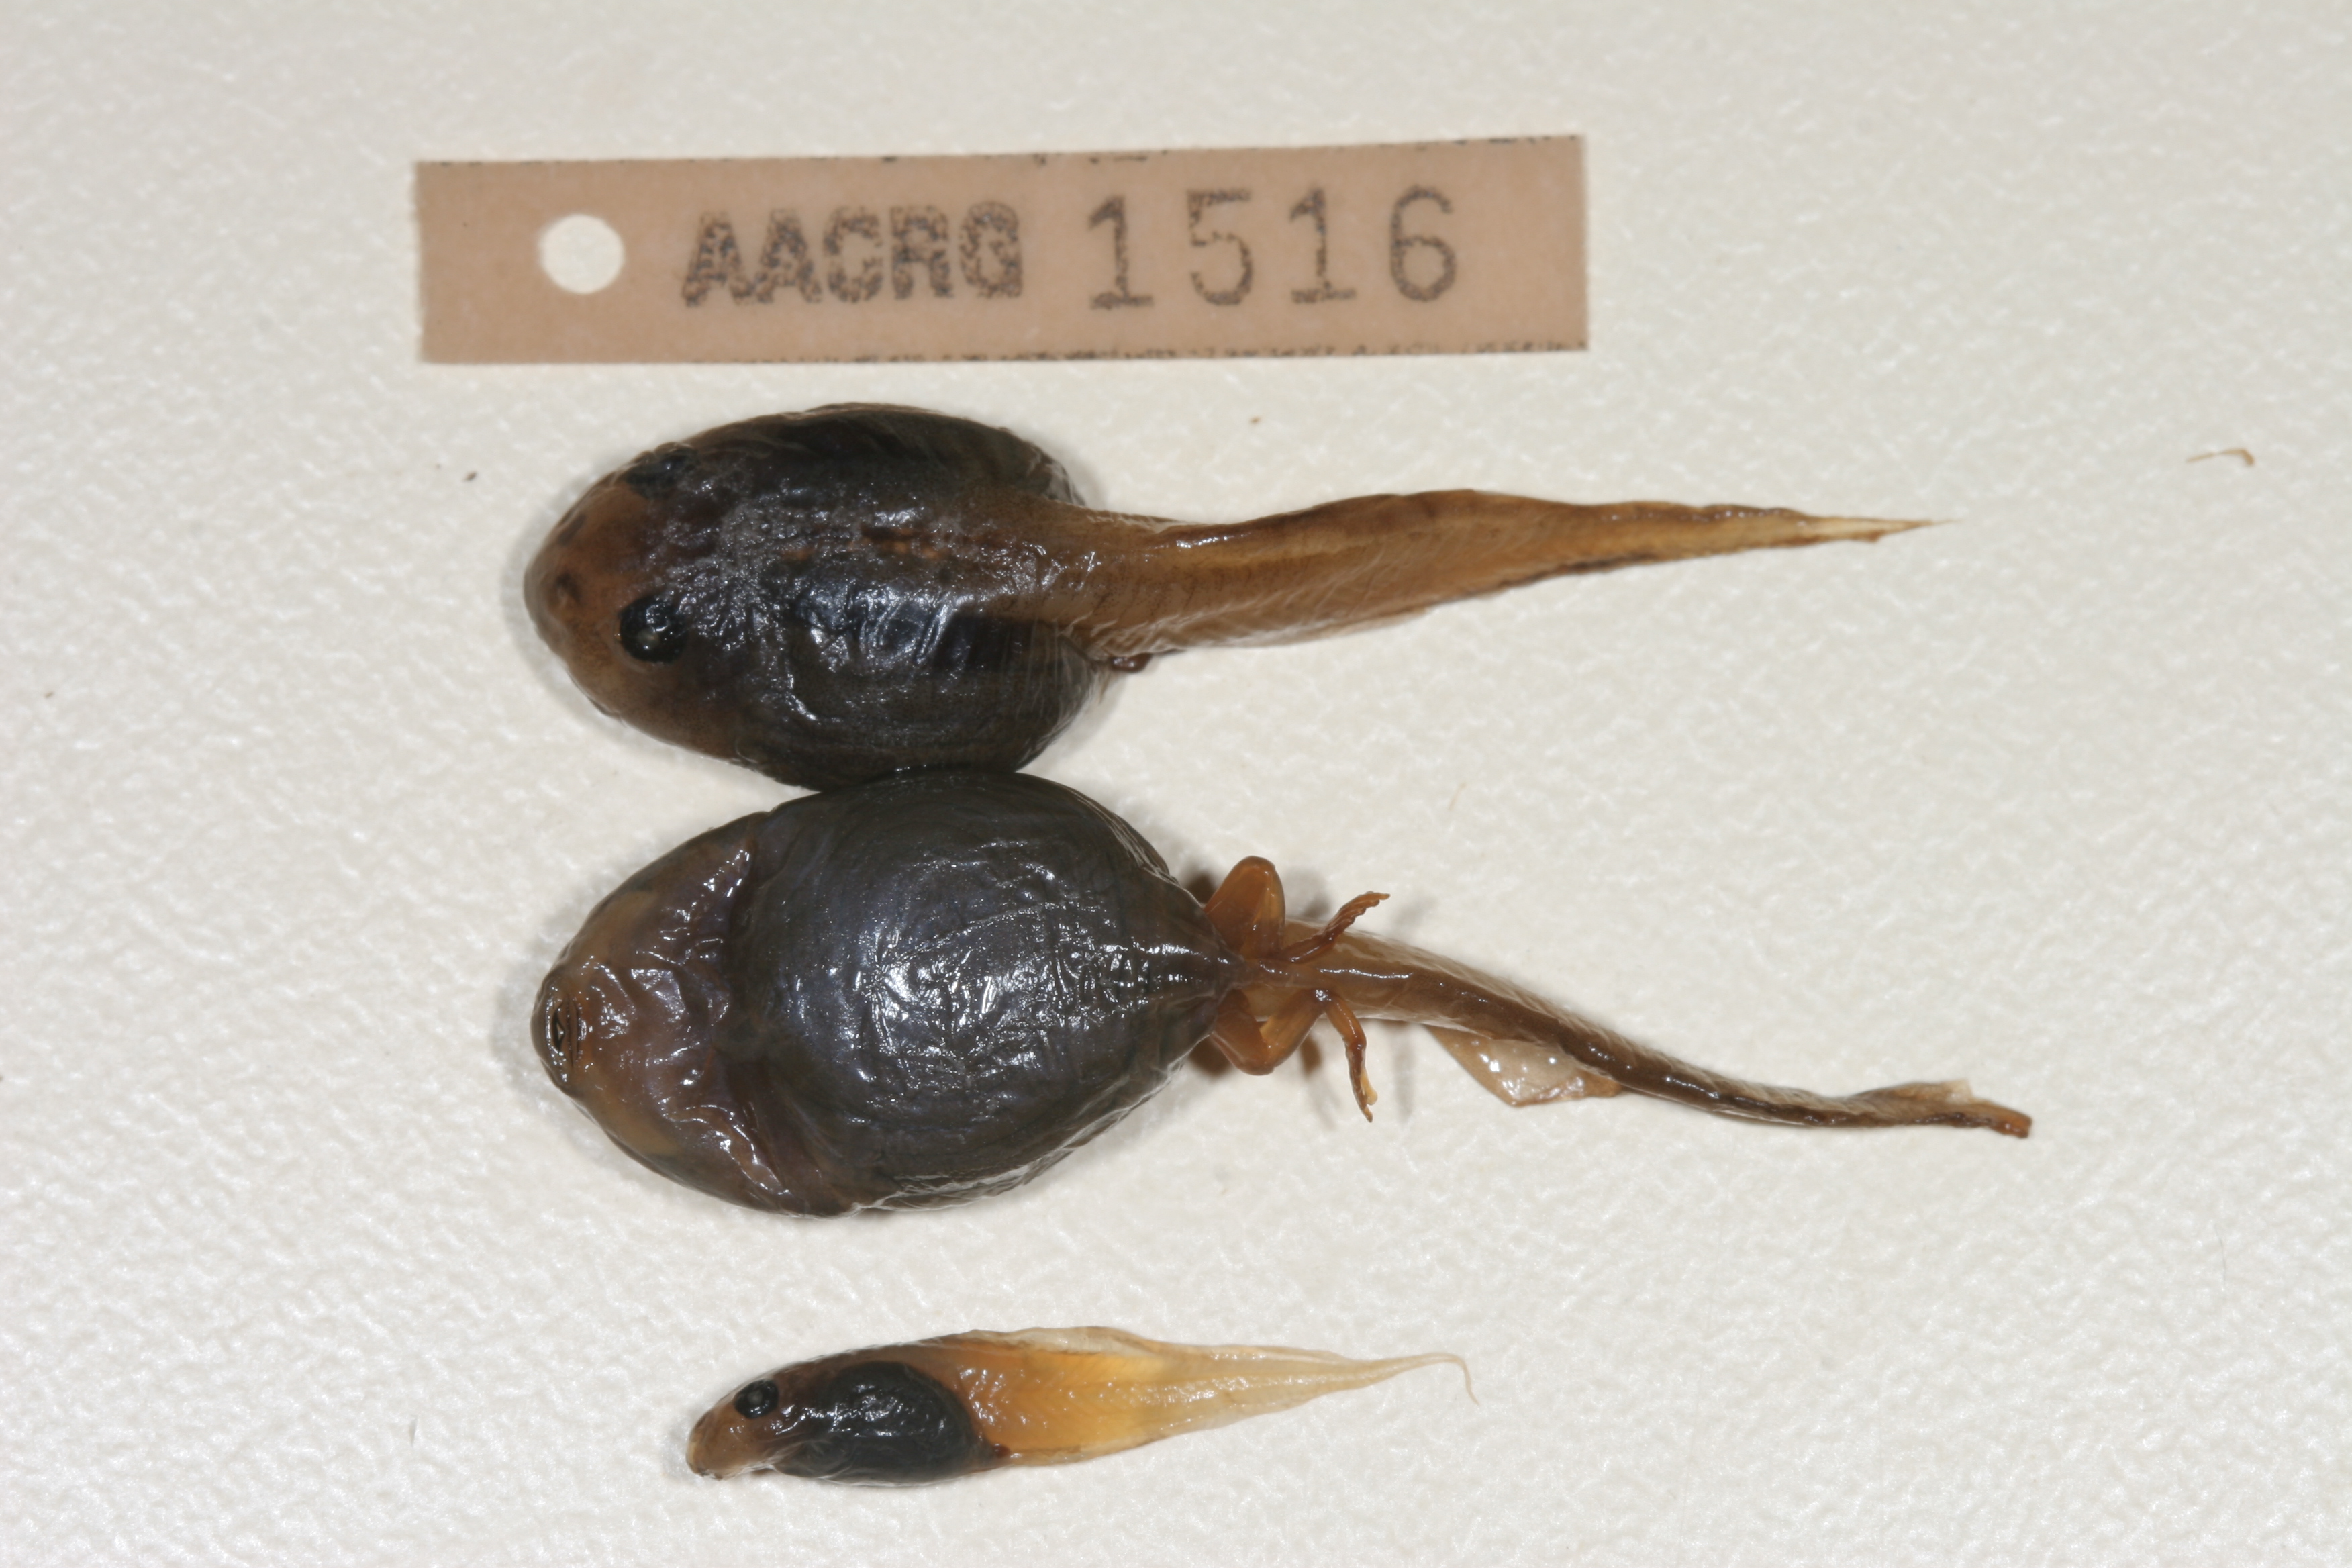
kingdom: Animalia
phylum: Chordata
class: Amphibia
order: Anura
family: Rhacophoridae
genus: Chiromantis
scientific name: Chiromantis xerampelina
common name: African gray treefrog
